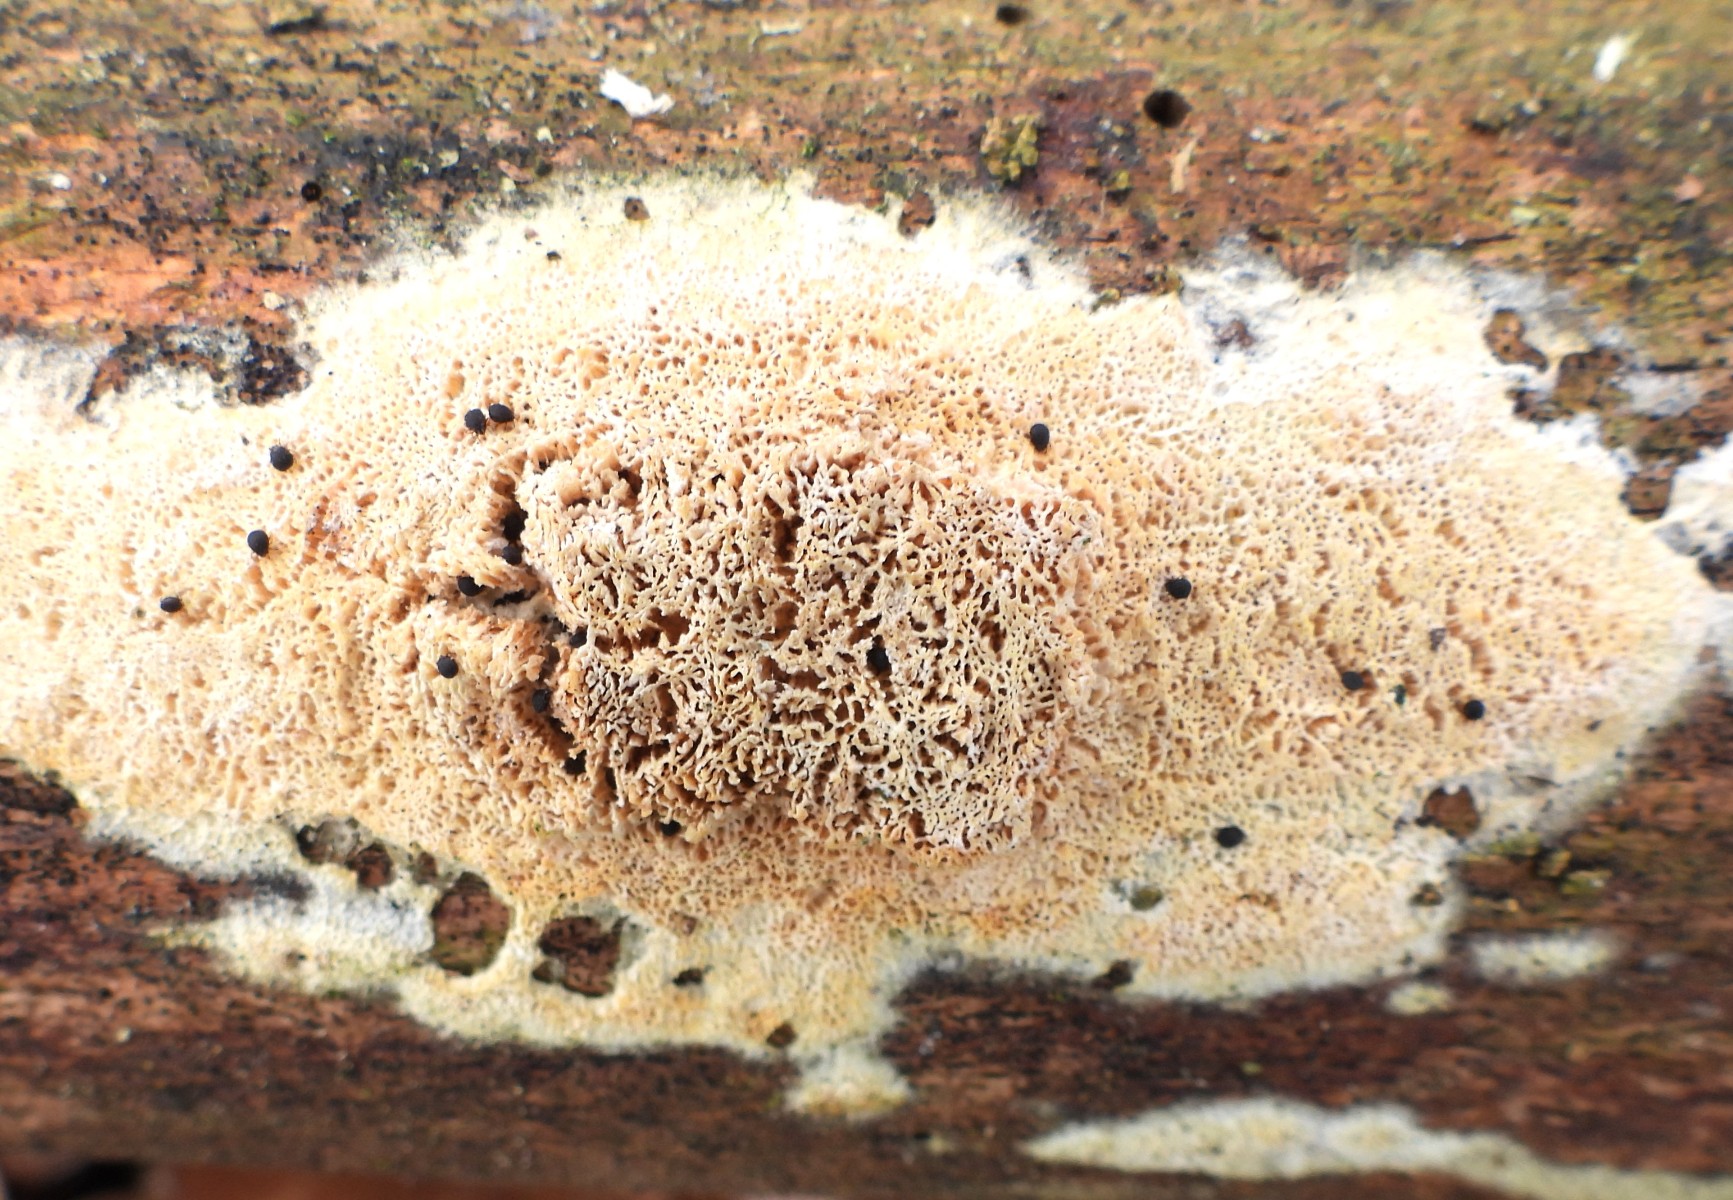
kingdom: Fungi
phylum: Basidiomycota
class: Agaricomycetes
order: Hymenochaetales
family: Schizoporaceae
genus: Xylodon
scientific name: Xylodon subtropicus
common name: labyrint-tandsvamp
